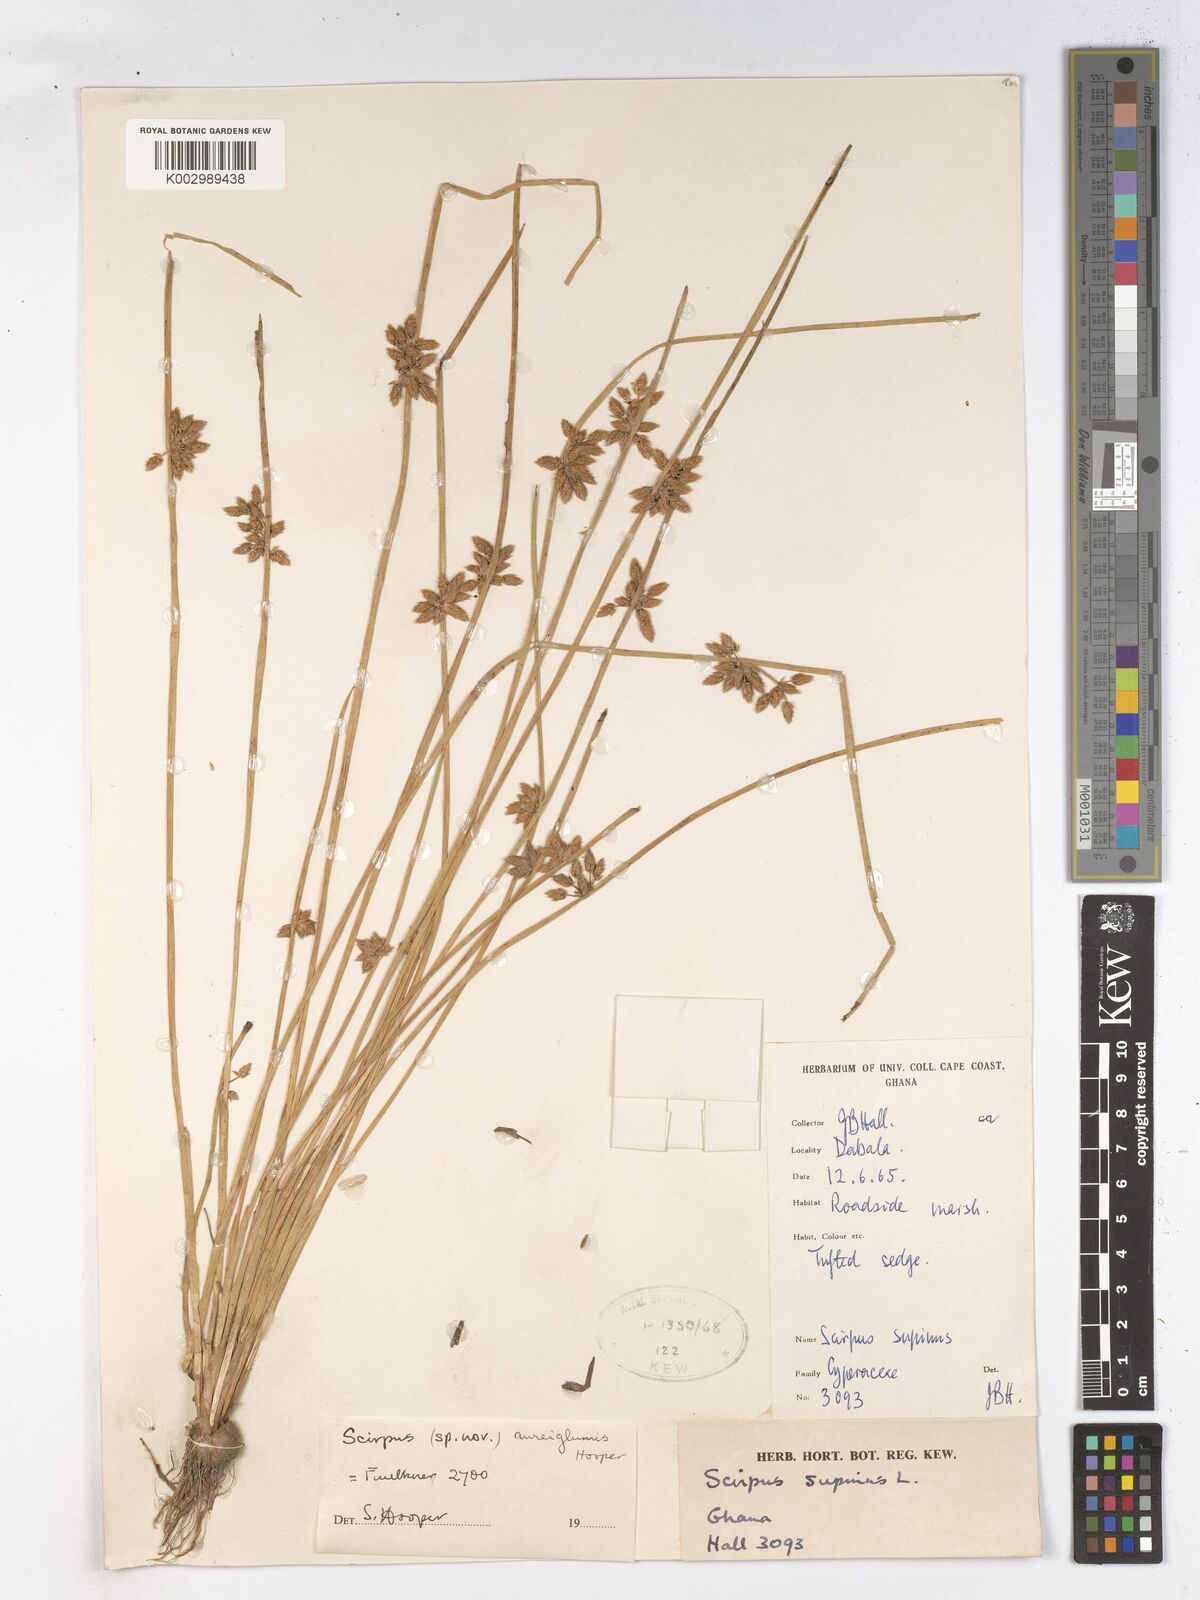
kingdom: Plantae
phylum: Tracheophyta
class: Liliopsida
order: Poales
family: Cyperaceae
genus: Schoenoplectiella
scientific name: Schoenoplectiella juncea
